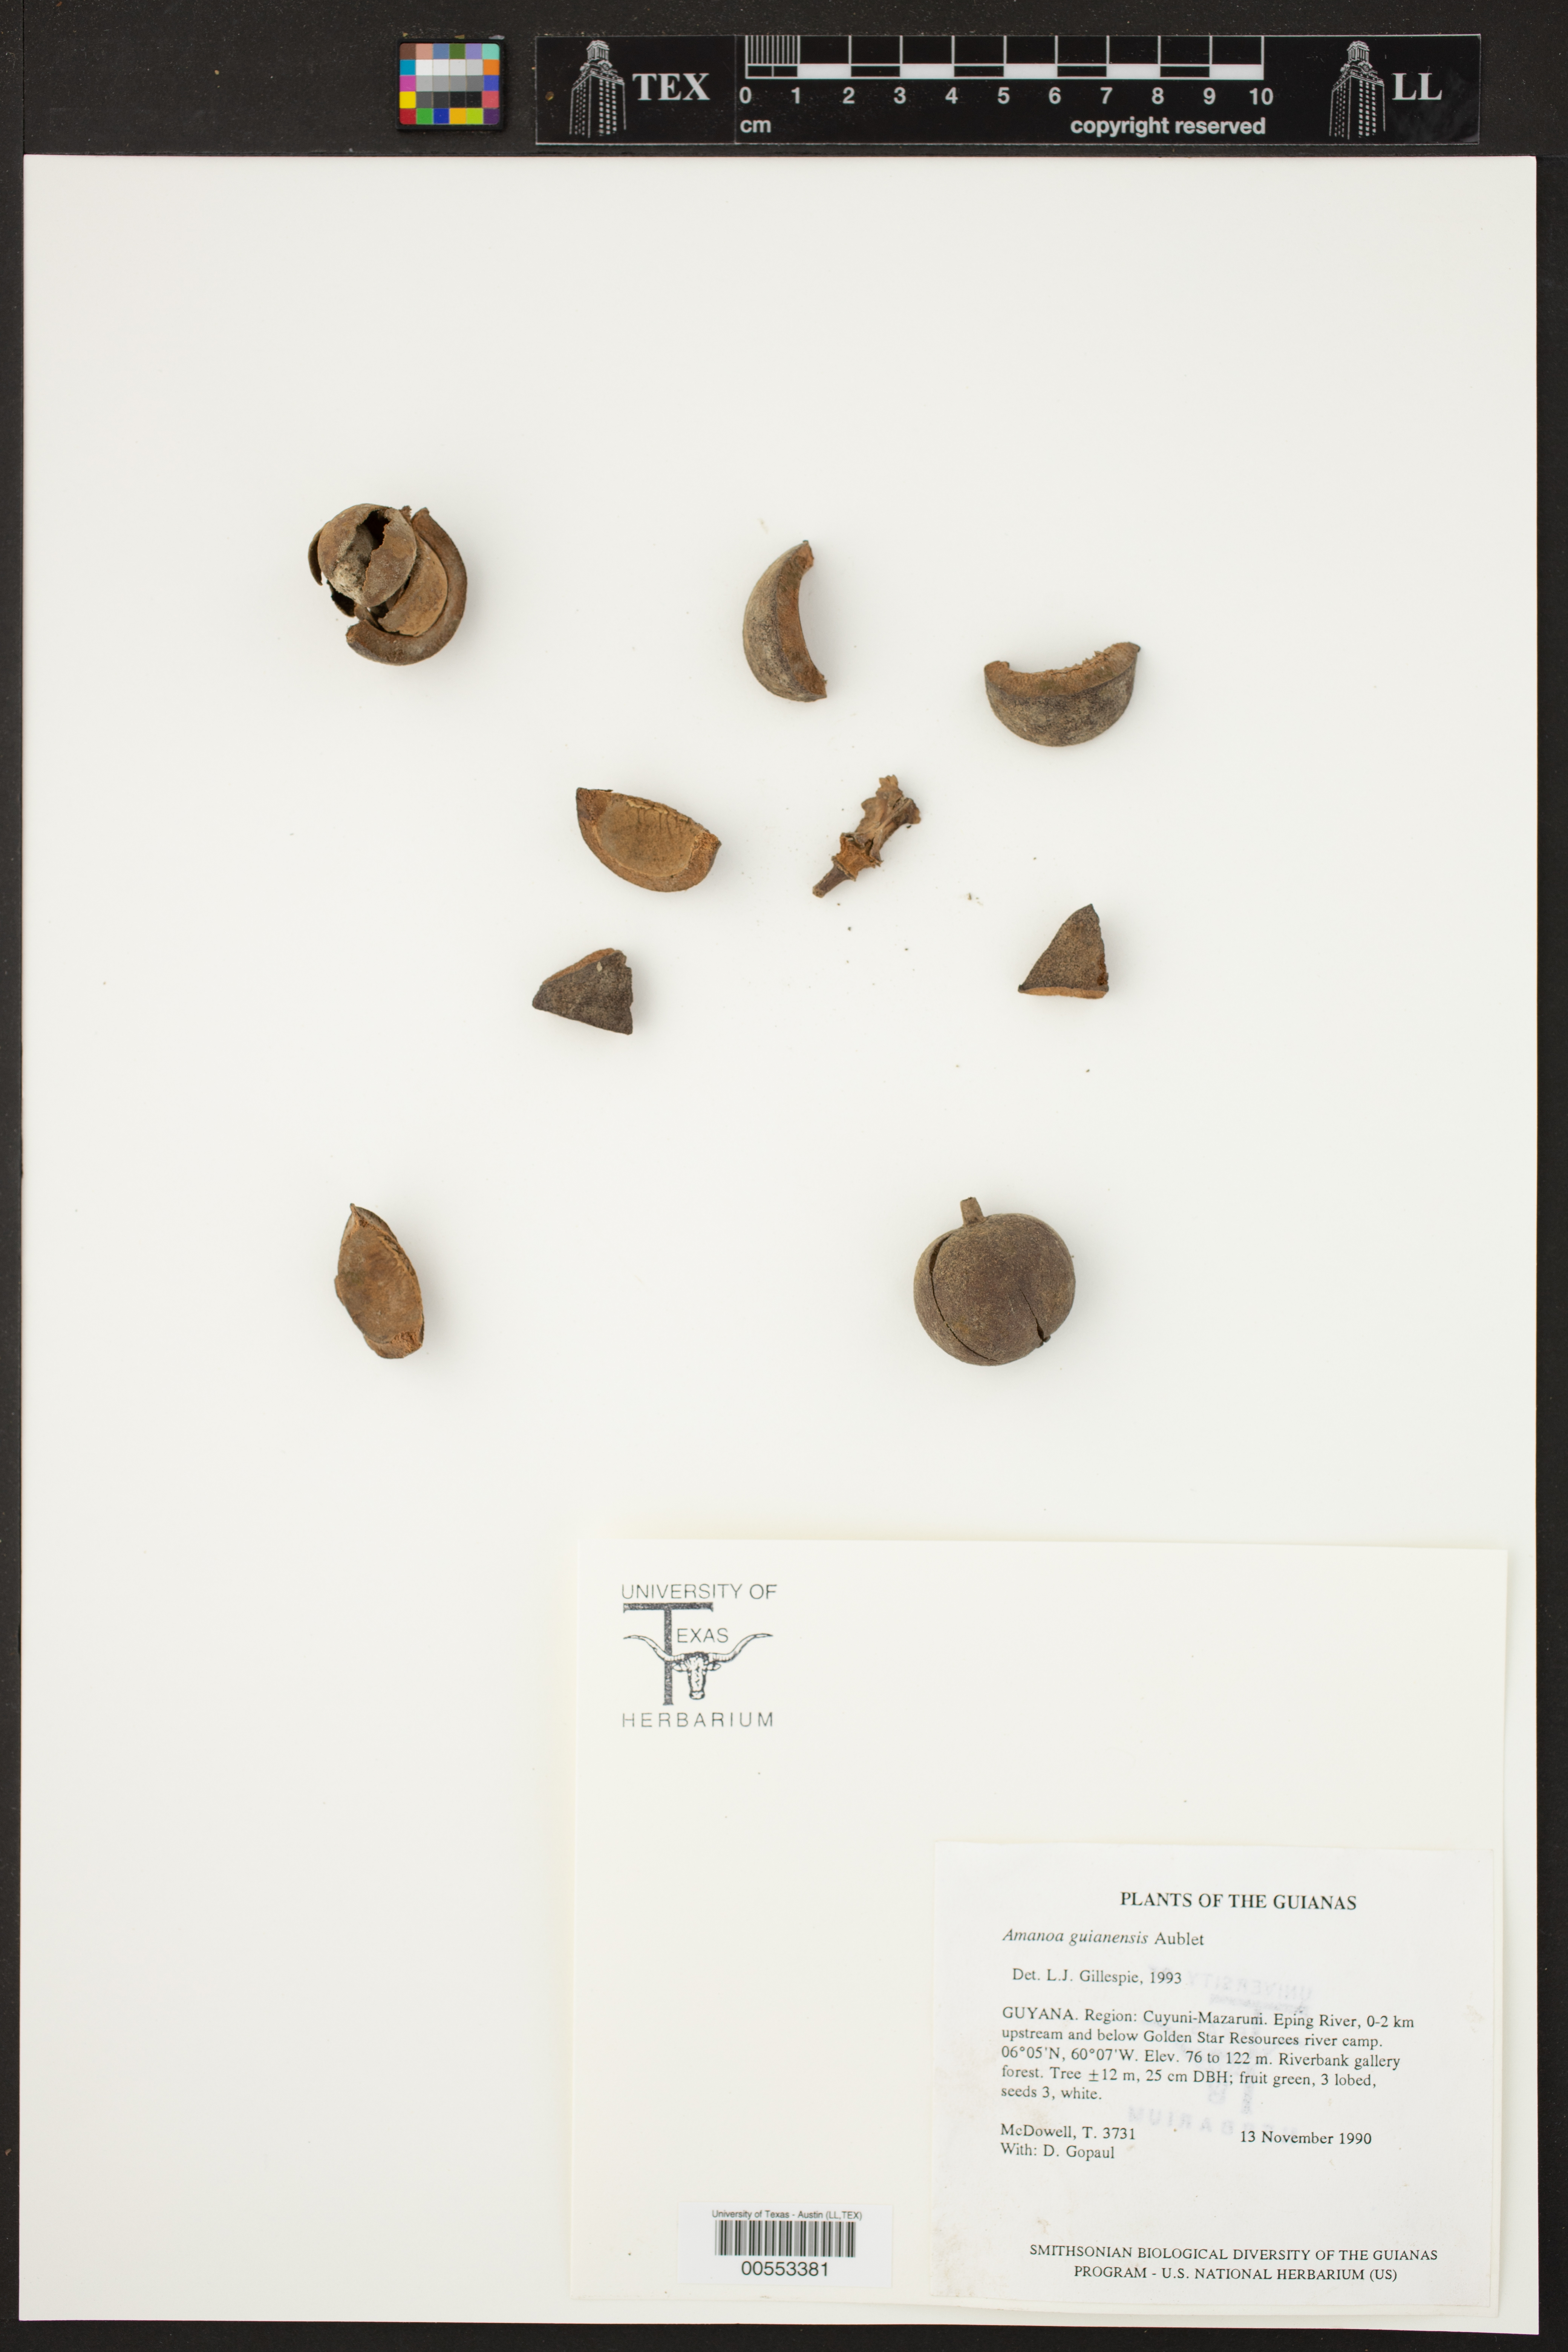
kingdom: Plantae
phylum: Tracheophyta
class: Magnoliopsida
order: Malpighiales
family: Phyllanthaceae
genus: Amanoa
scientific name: Amanoa guianensis
